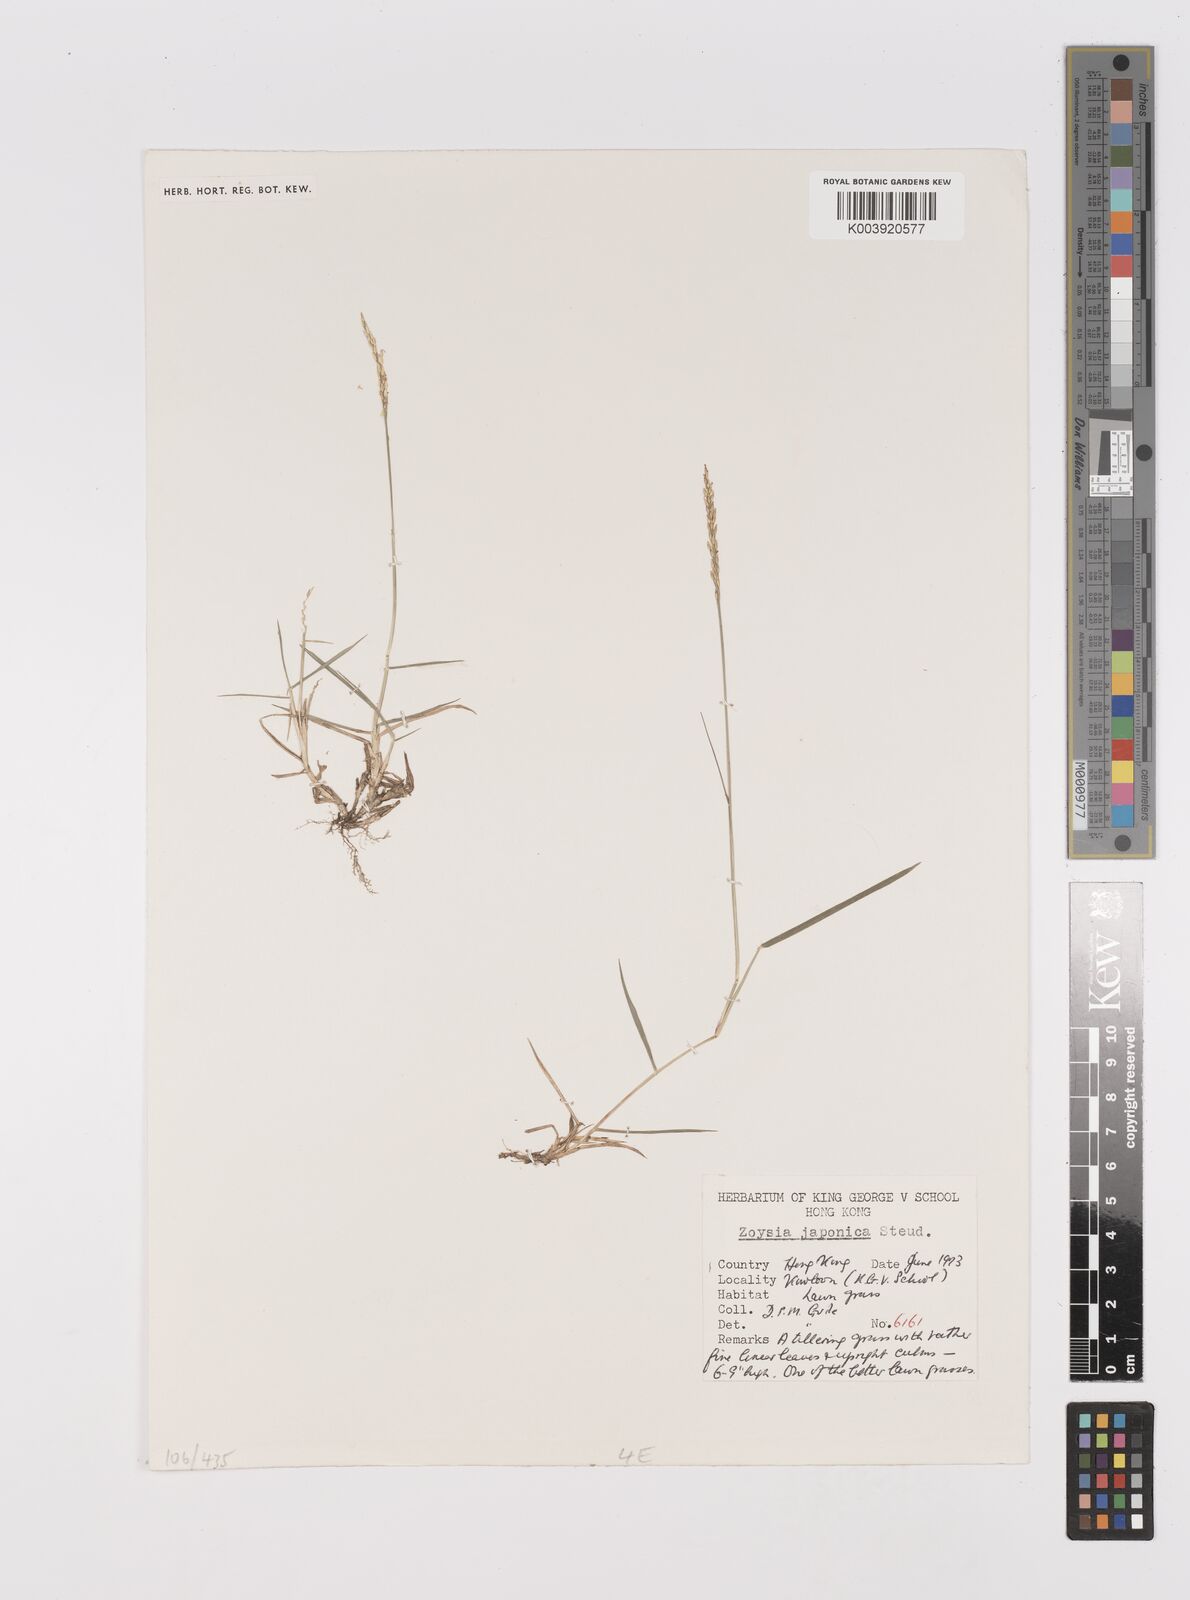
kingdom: Plantae
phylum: Tracheophyta
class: Liliopsida
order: Poales
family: Poaceae
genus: Zoysia
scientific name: Zoysia japonica
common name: Korean lawngrass
